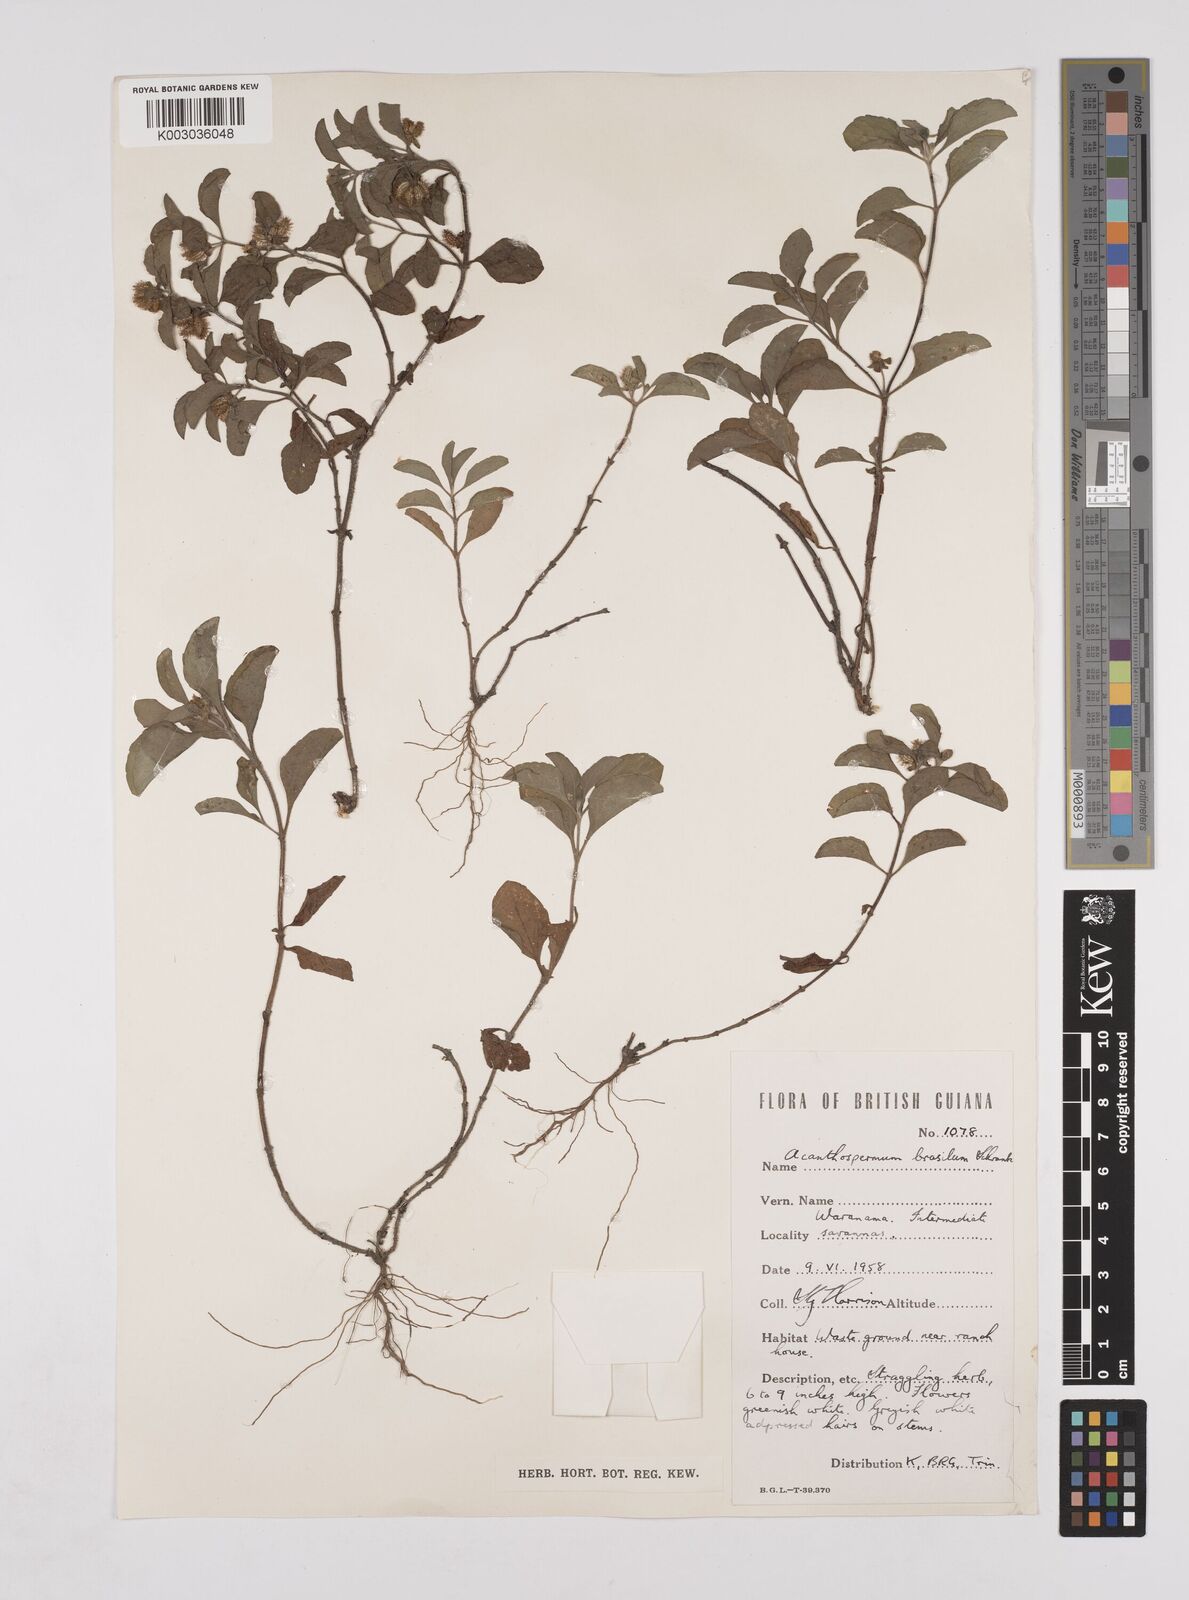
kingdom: Plantae
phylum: Tracheophyta
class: Magnoliopsida
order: Asterales
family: Asteraceae
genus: Acanthospermum
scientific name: Acanthospermum australe
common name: Paraguayan starbur
